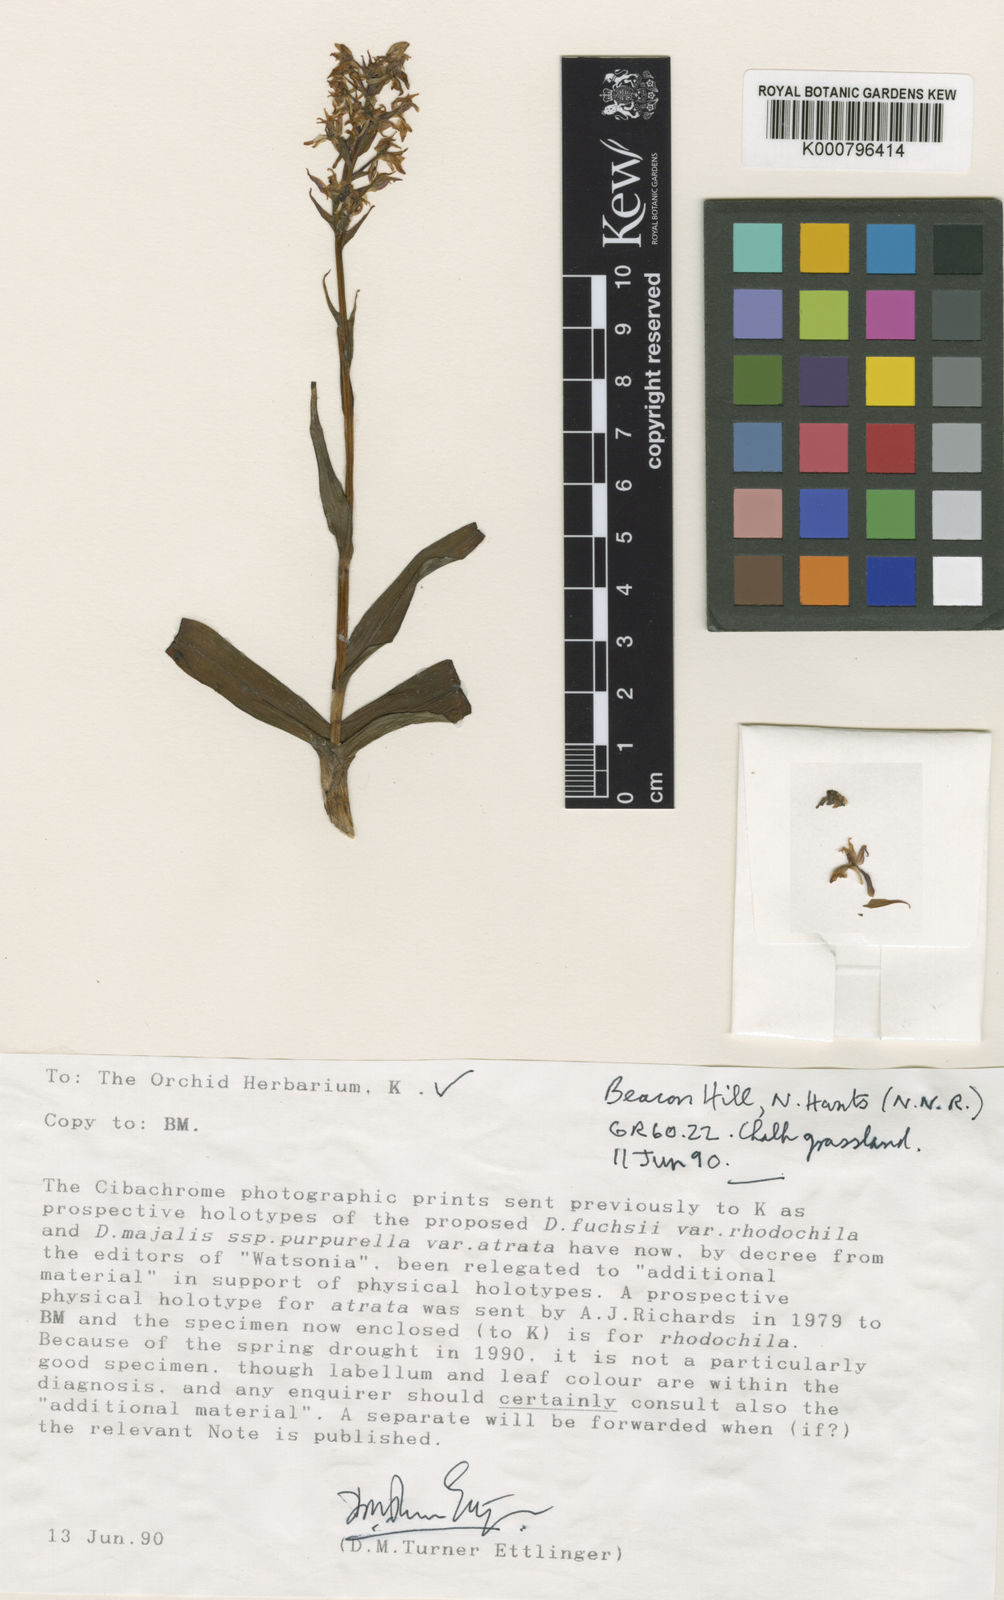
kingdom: Plantae
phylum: Tracheophyta
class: Liliopsida
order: Asparagales
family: Orchidaceae
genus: Dactylorhiza
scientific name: Dactylorhiza
